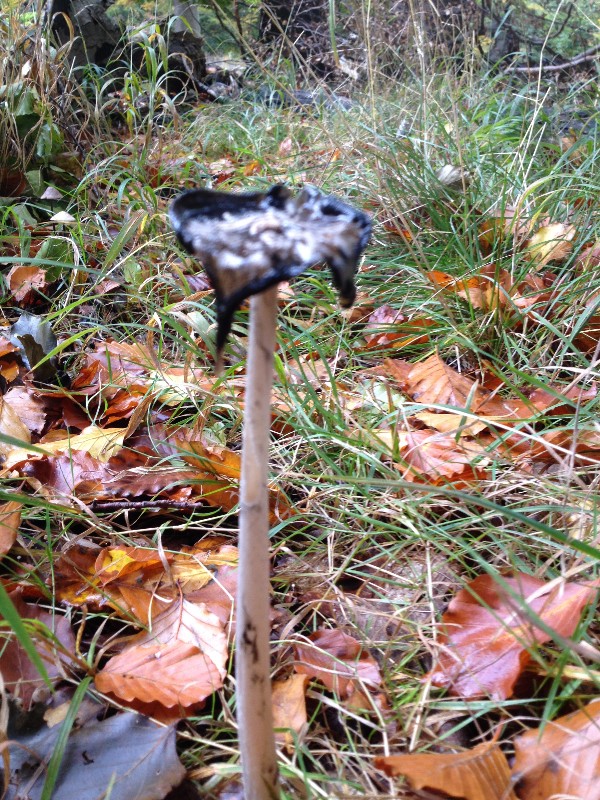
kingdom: Fungi
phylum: Basidiomycota
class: Agaricomycetes
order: Agaricales
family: Agaricaceae
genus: Coprinus
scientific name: Coprinus comatus
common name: stor parykhat
